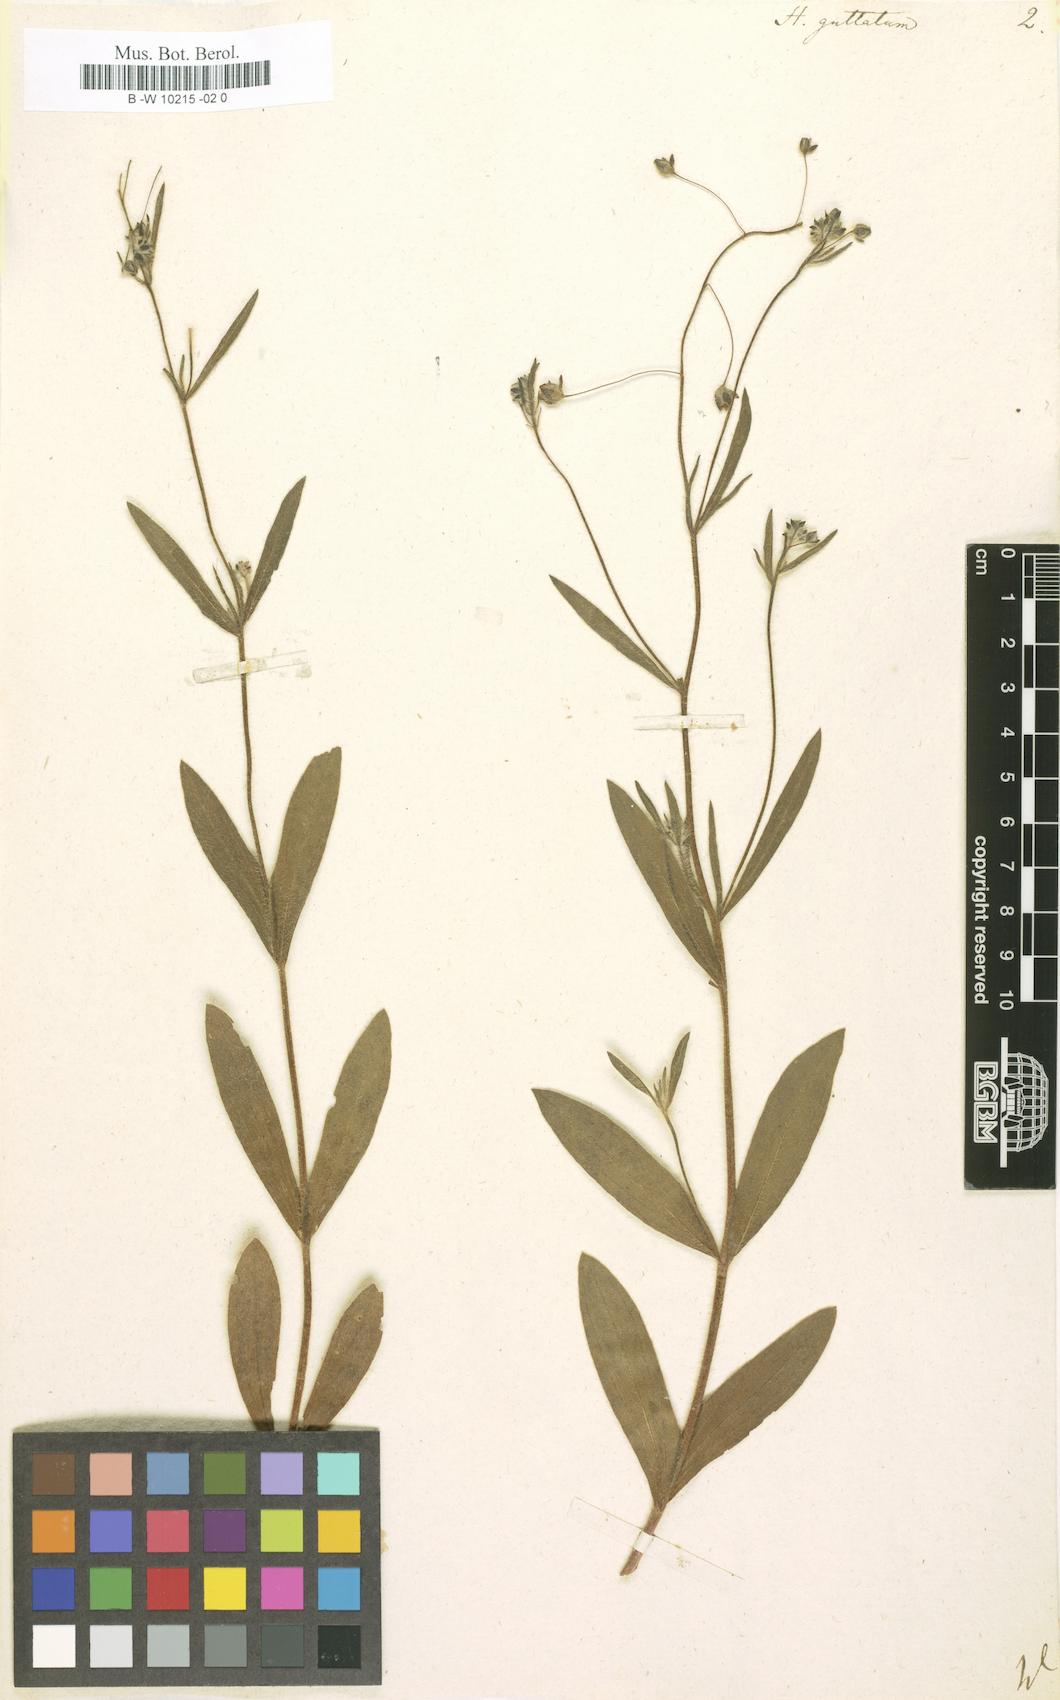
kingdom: Plantae
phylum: Tracheophyta
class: Magnoliopsida
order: Malvales
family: Cistaceae
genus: Tuberaria
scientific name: Tuberaria guttata
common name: Spotted rock-rose
